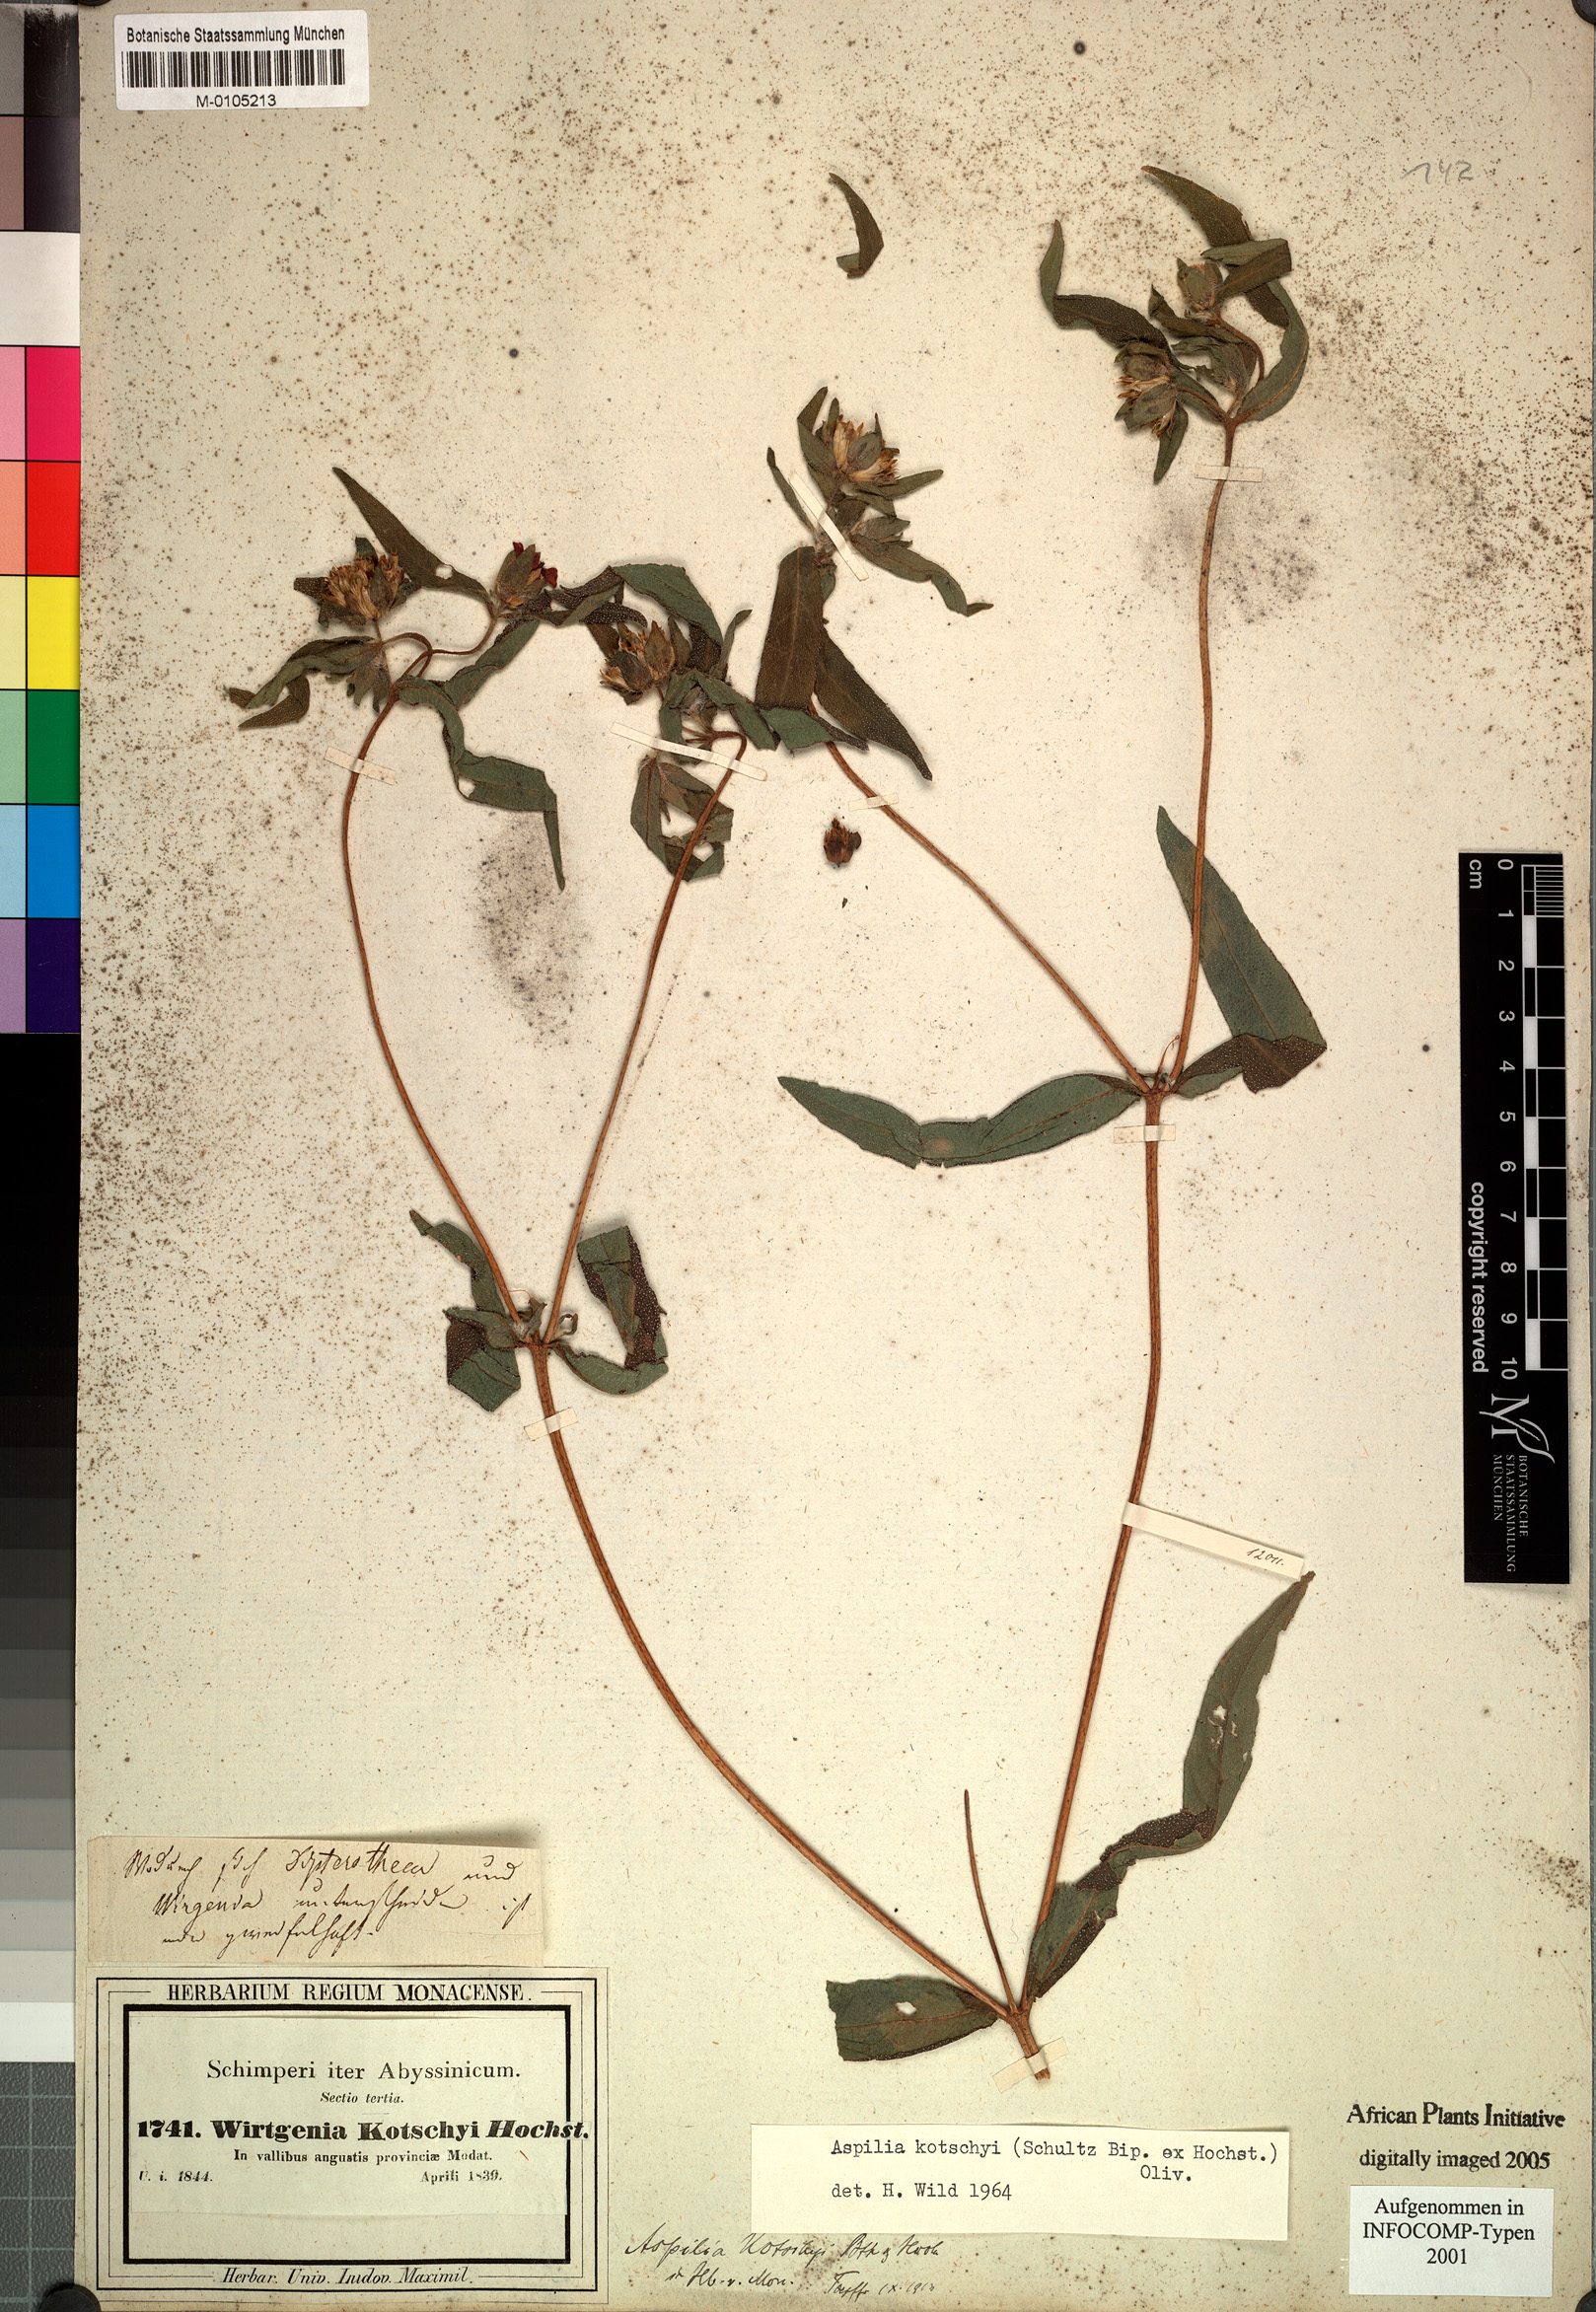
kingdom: Plantae
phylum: Tracheophyta
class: Magnoliopsida
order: Asterales
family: Asteraceae
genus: Aspilia
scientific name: Aspilia kotschyi
